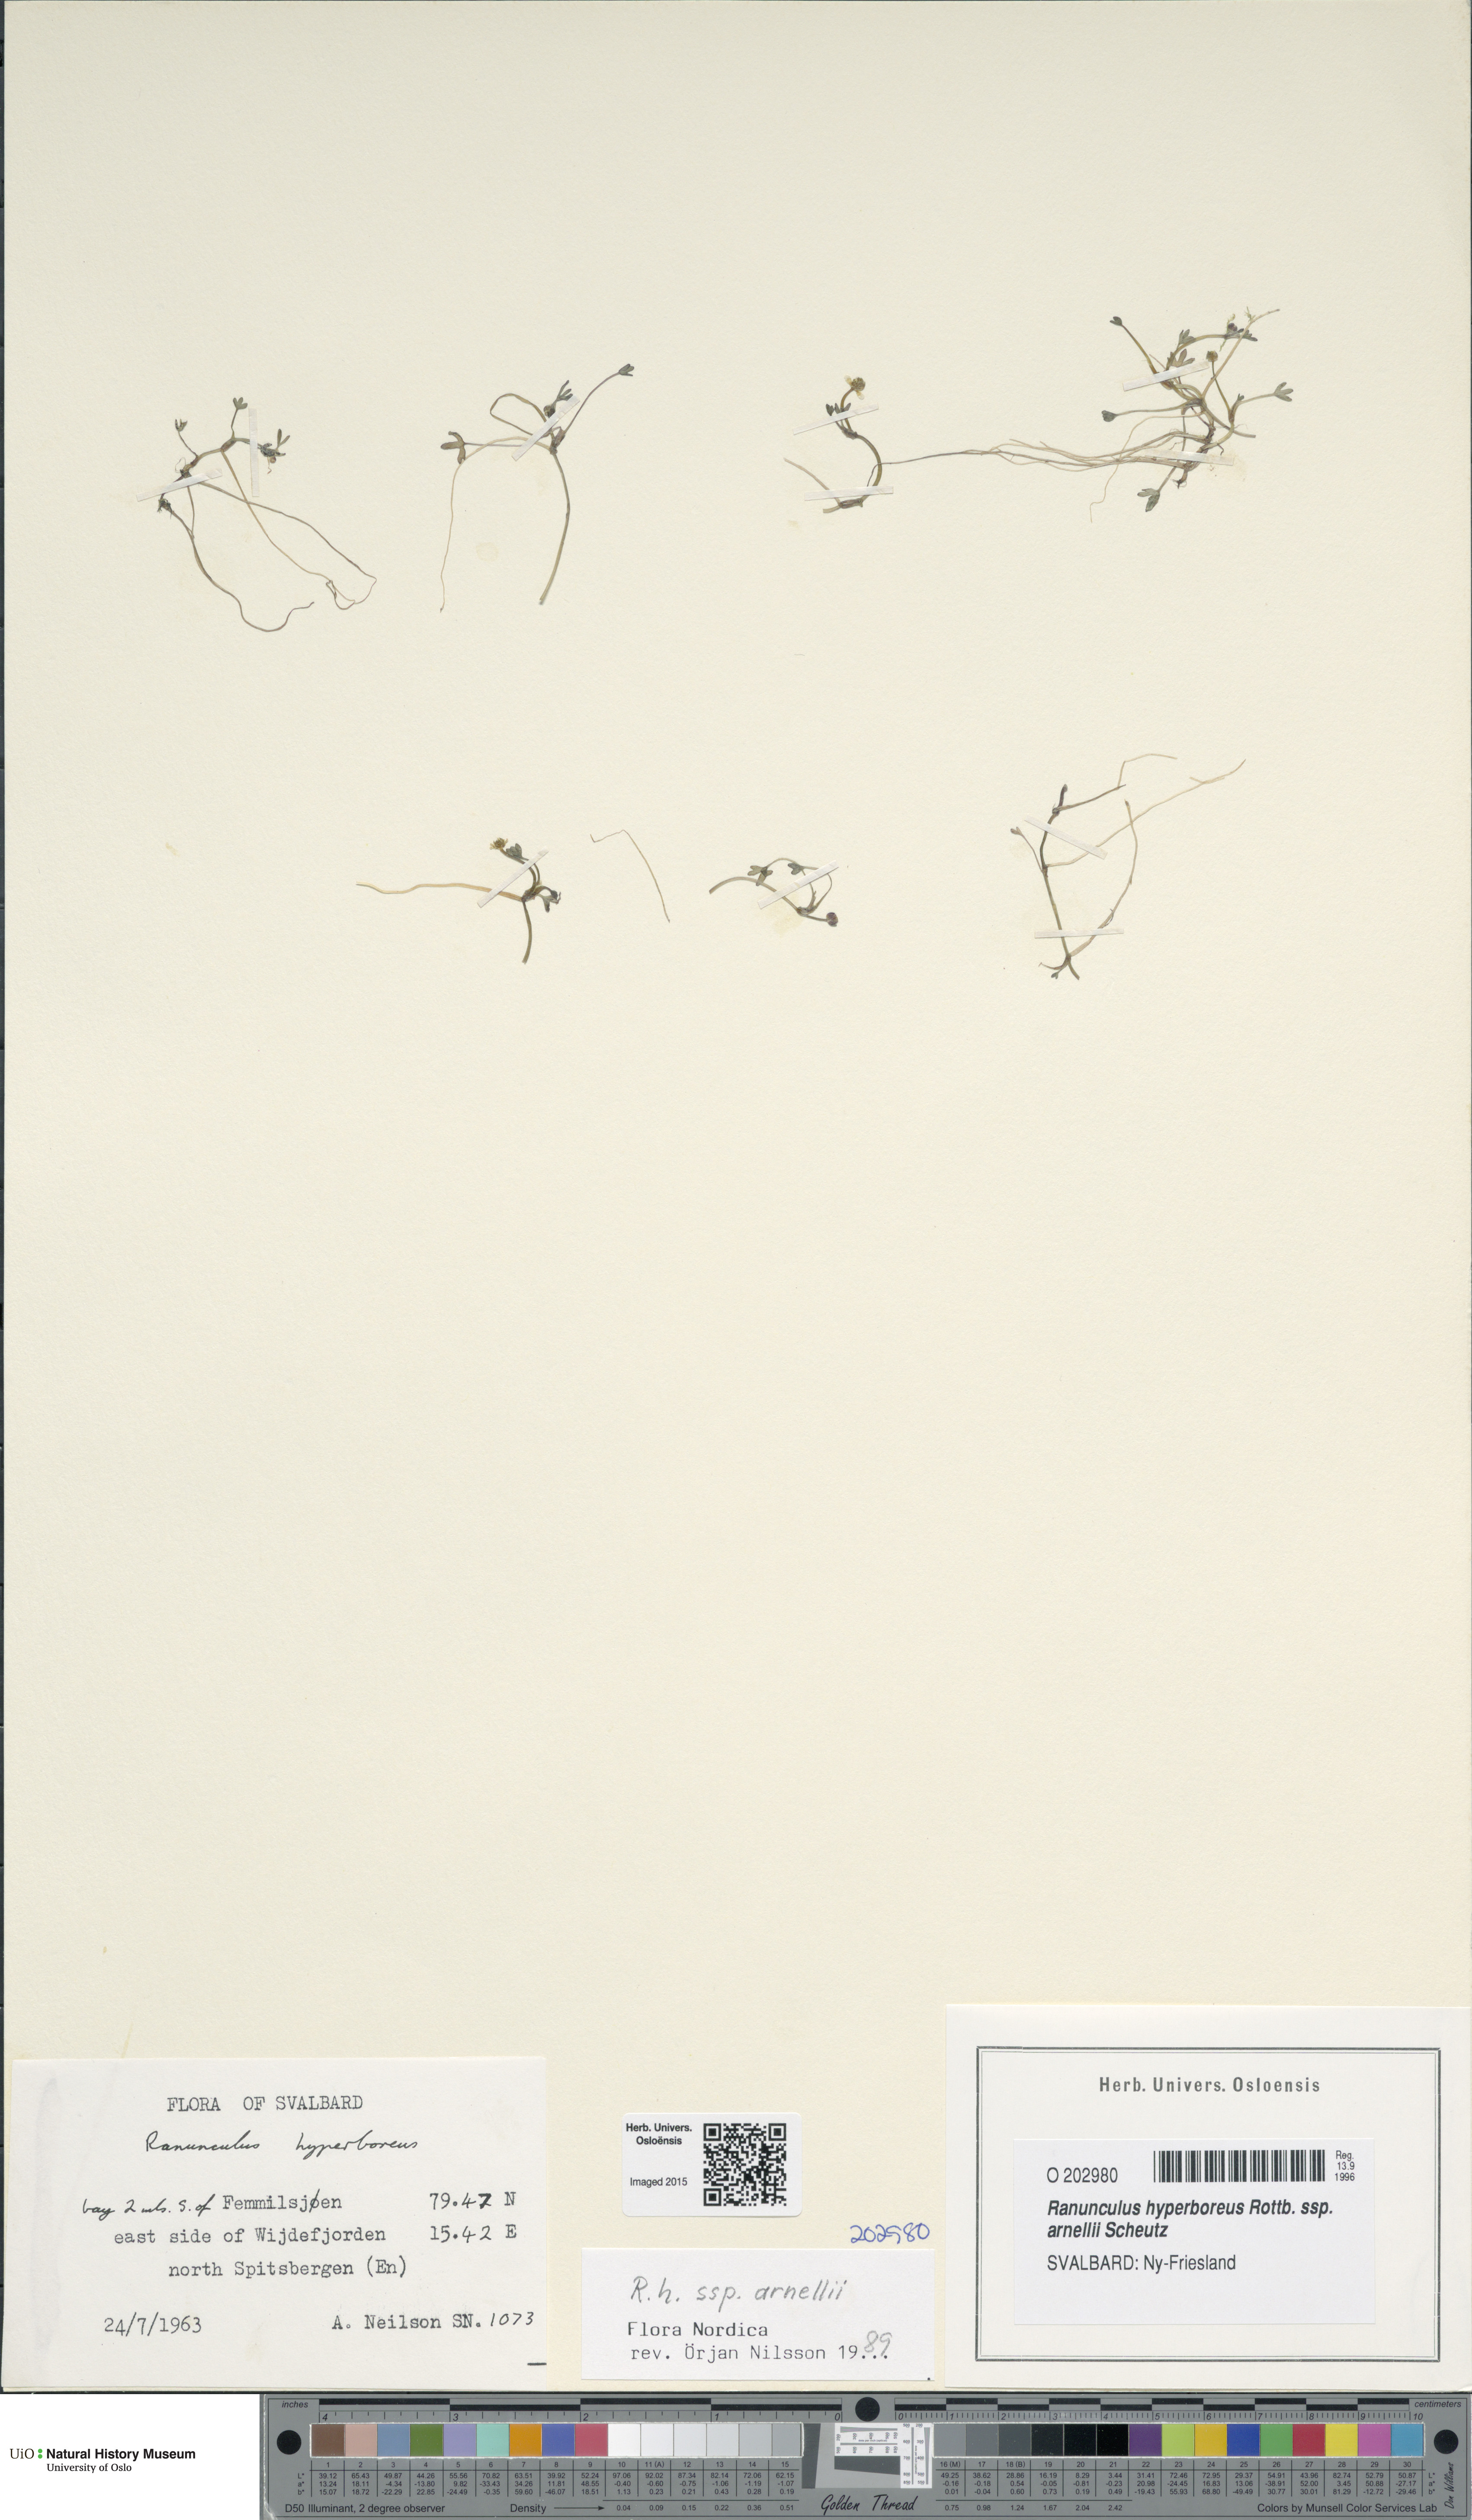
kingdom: Plantae
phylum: Tracheophyta
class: Magnoliopsida
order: Ranunculales
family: Ranunculaceae
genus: Ranunculus
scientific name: Ranunculus hyperboreus
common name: Arctic buttercup
